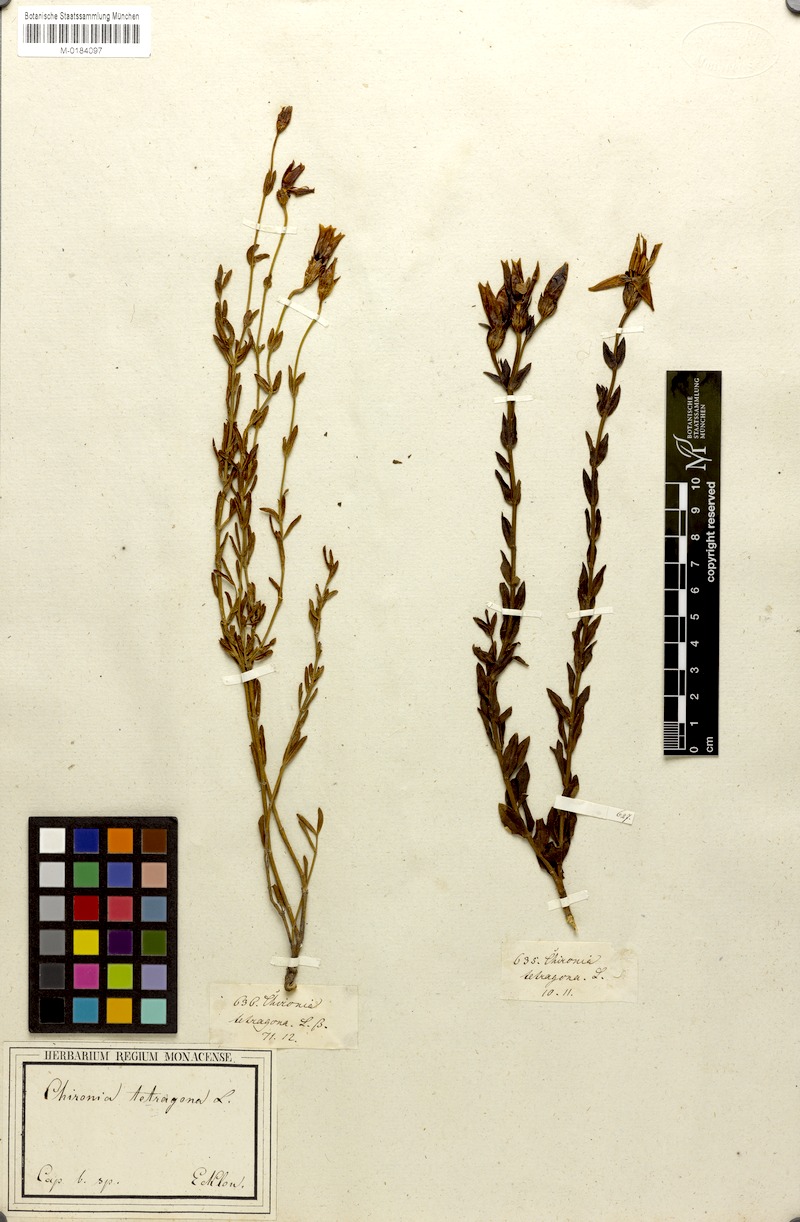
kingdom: Plantae
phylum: Tracheophyta
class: Magnoliopsida
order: Gentianales
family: Gentianaceae
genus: Chironia
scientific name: Chironia tetragona
